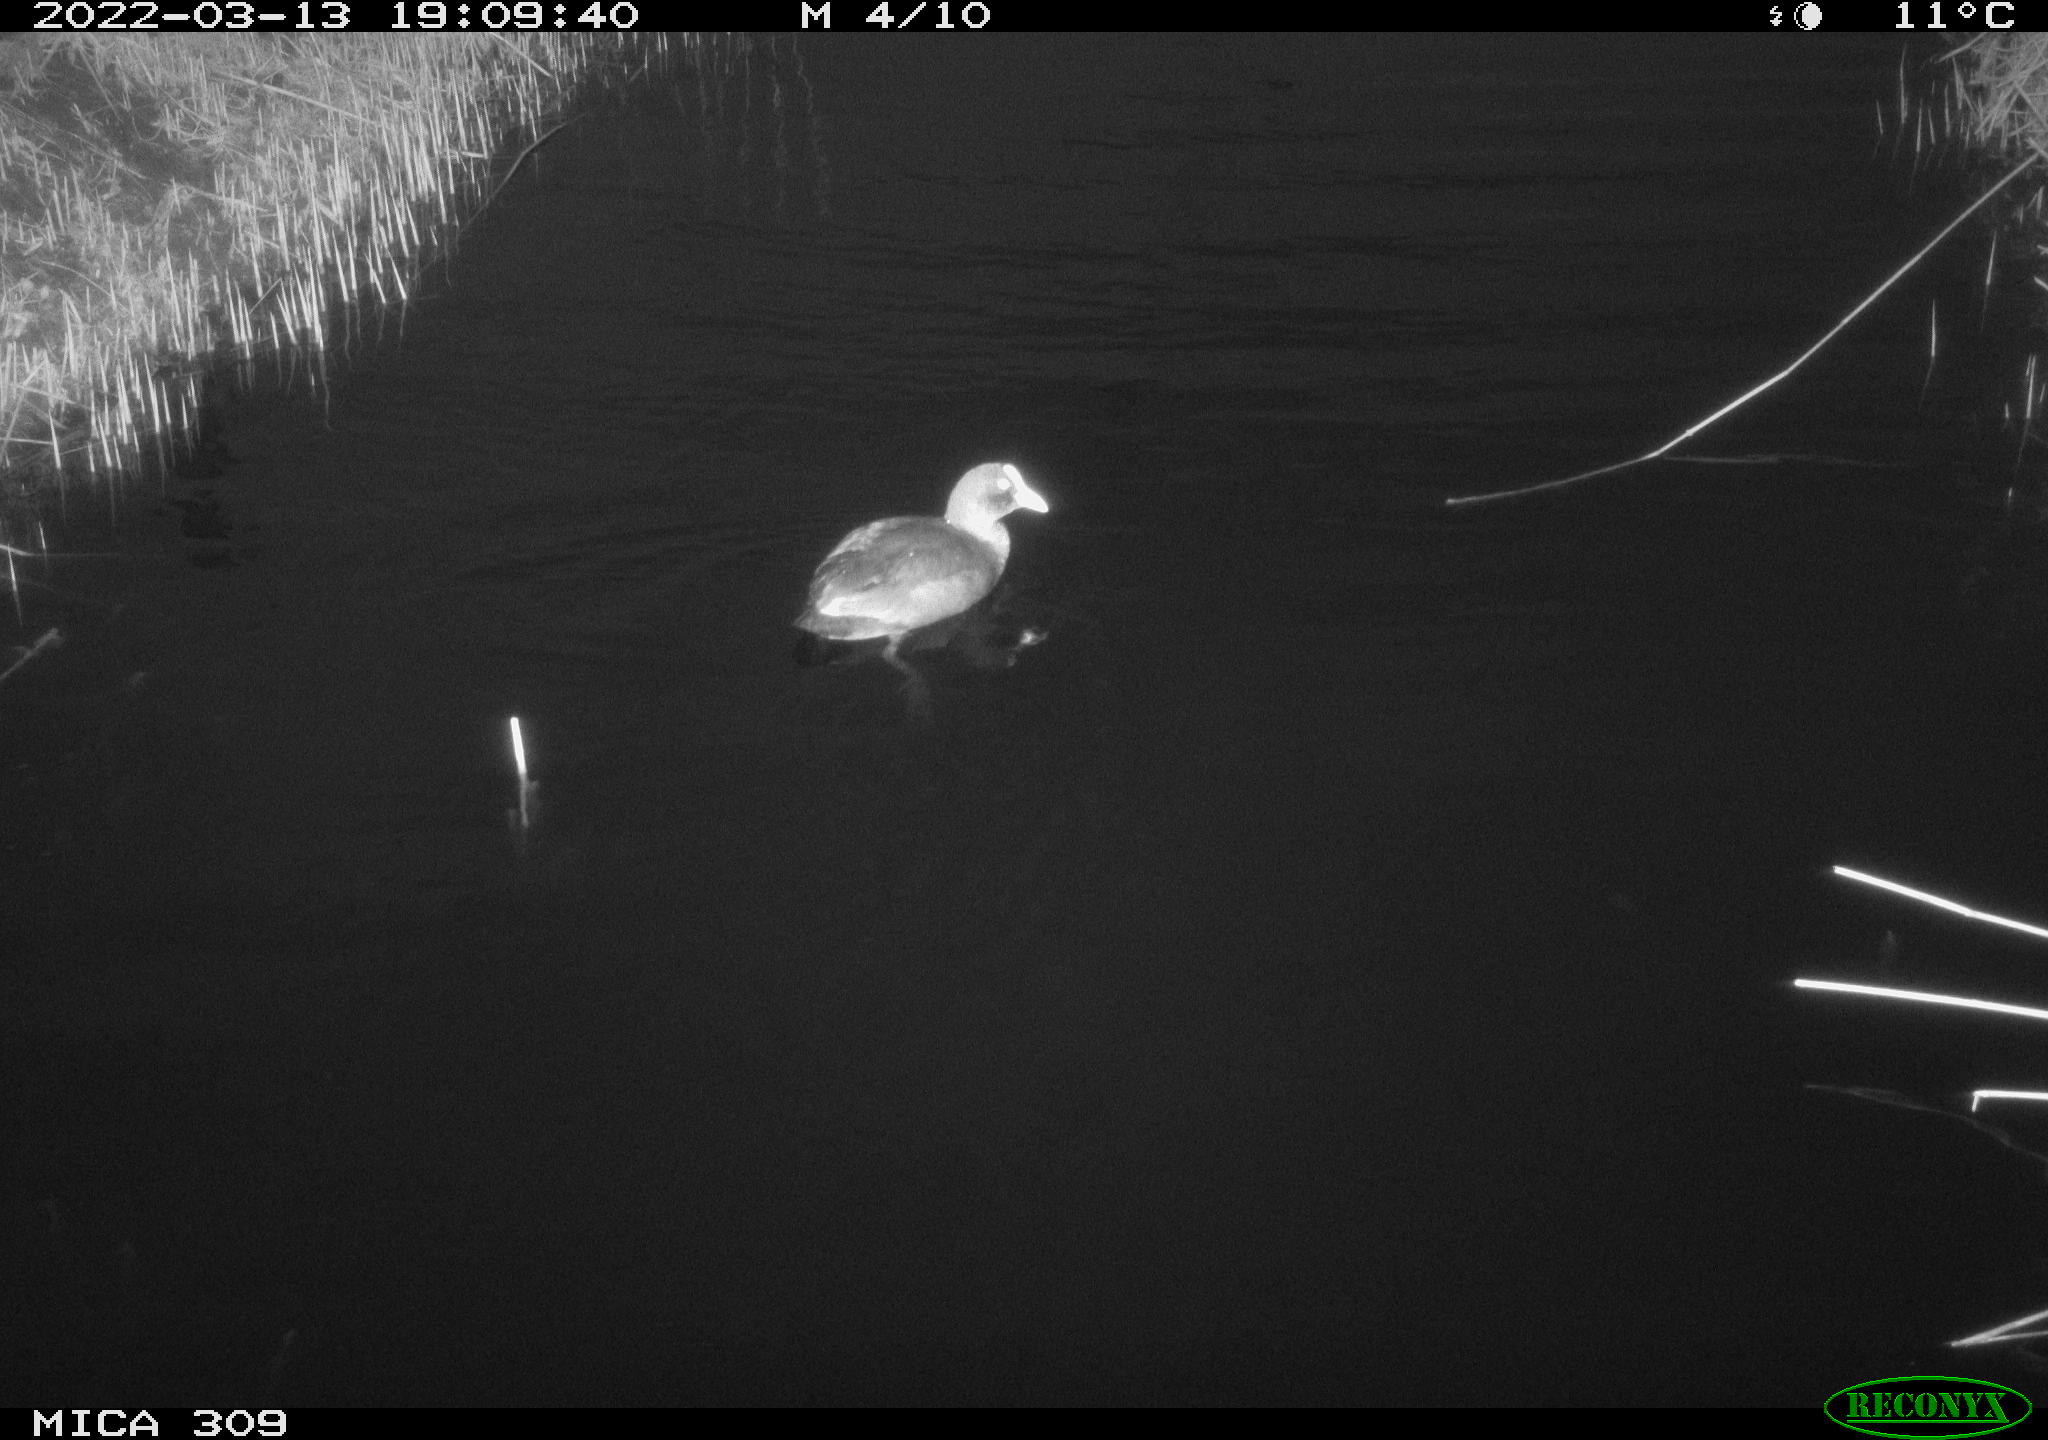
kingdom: Animalia
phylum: Chordata
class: Aves
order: Gruiformes
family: Rallidae
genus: Fulica
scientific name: Fulica atra
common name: Eurasian coot
